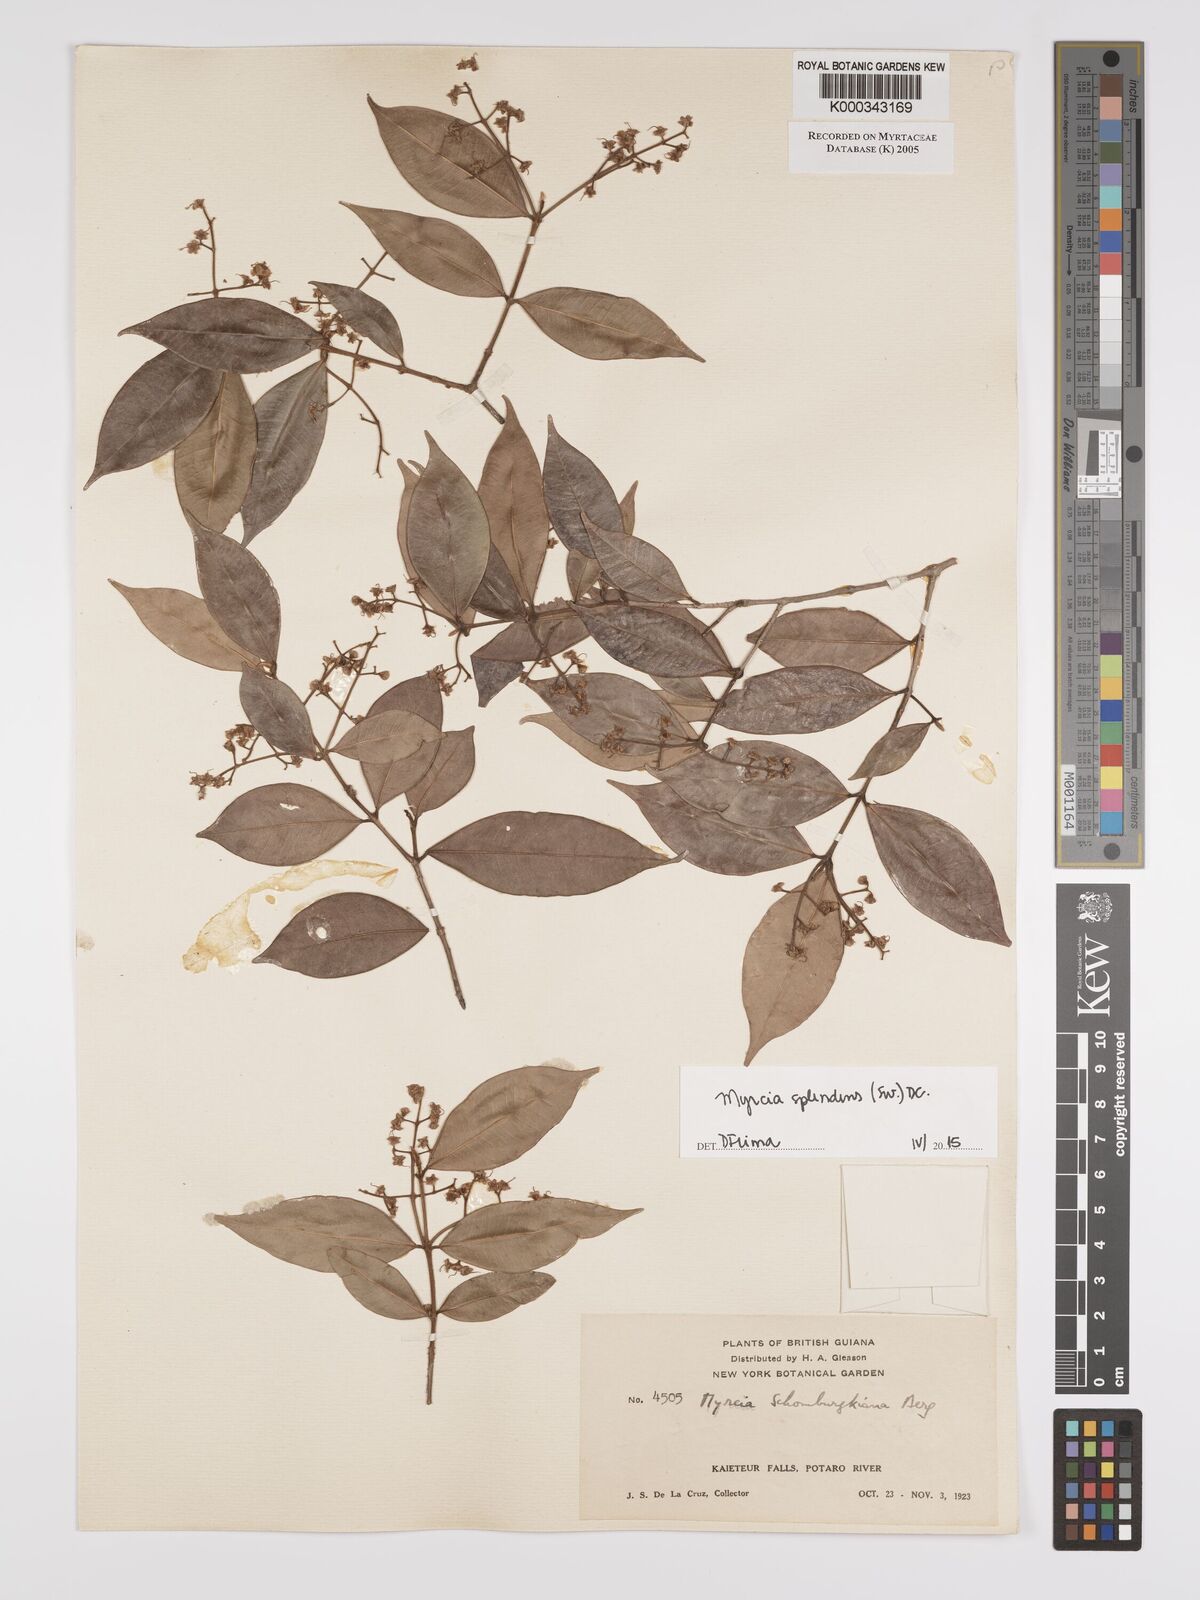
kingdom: Plantae
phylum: Tracheophyta
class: Magnoliopsida
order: Myrtales
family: Myrtaceae
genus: Myrcia
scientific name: Myrcia splendens
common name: Surinam cherry
